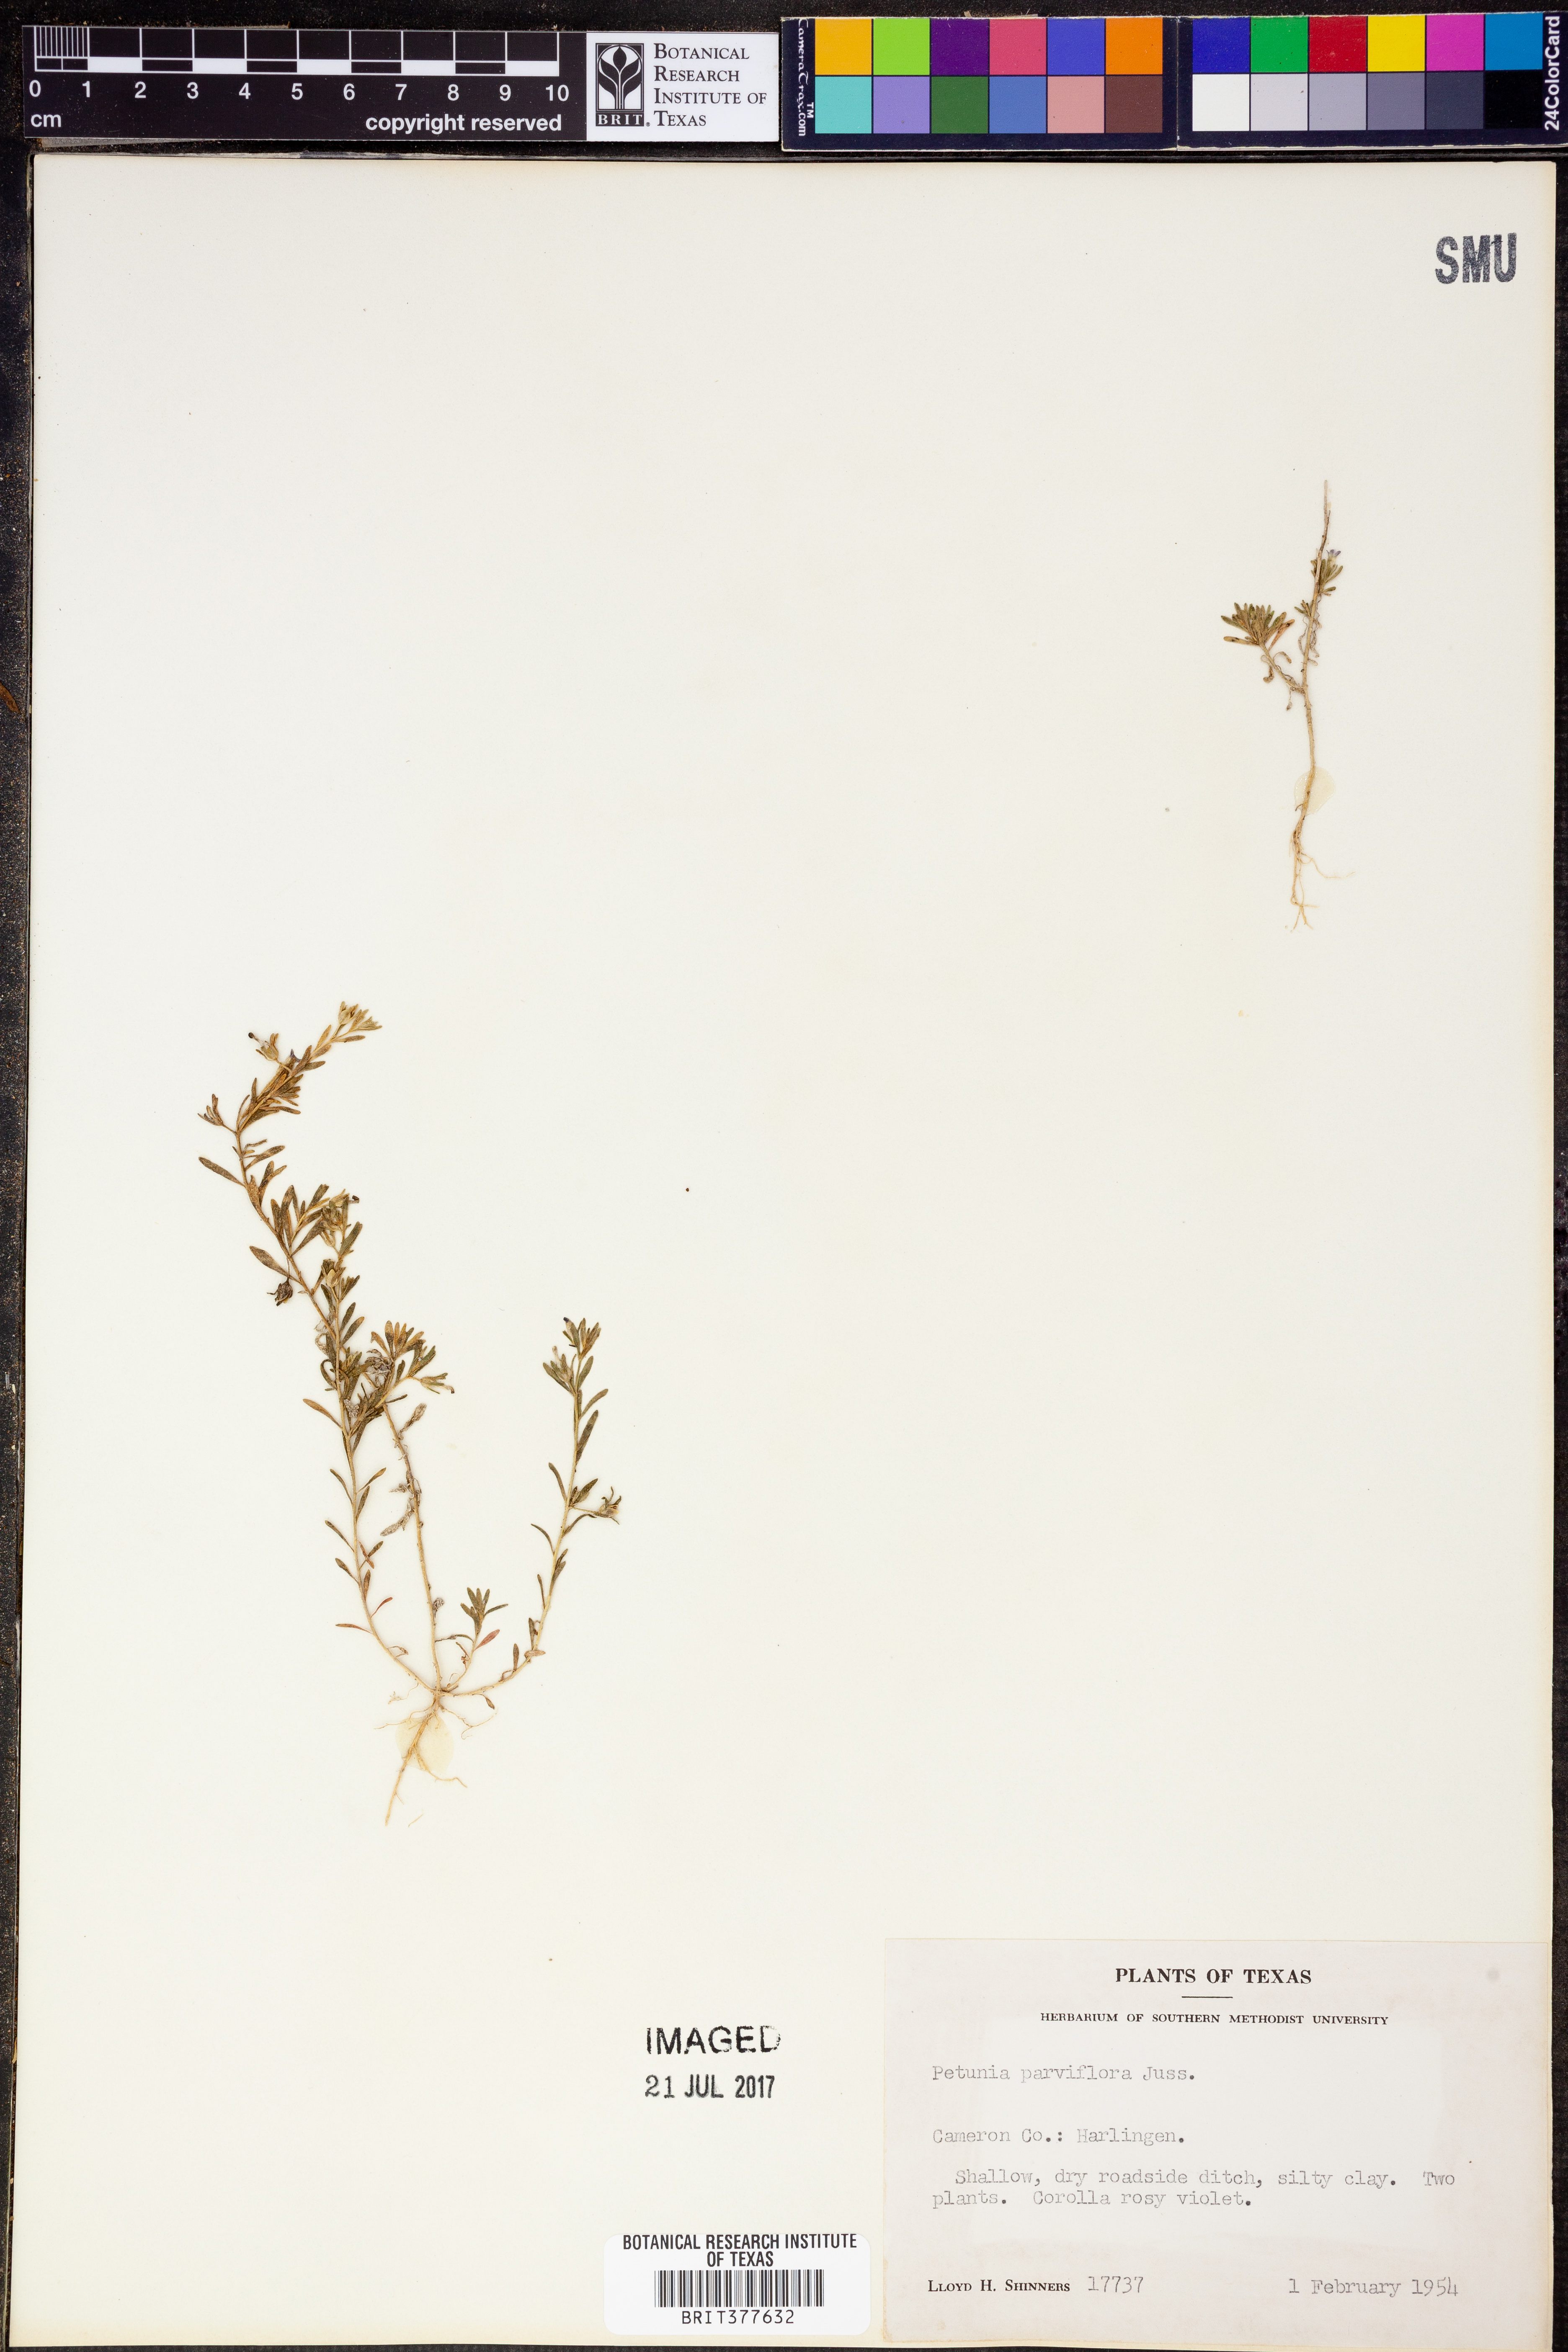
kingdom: Plantae
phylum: Tracheophyta
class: Magnoliopsida
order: Solanales
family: Solanaceae
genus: Calibrachoa
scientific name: Calibrachoa parviflora
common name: Seaside petunia
